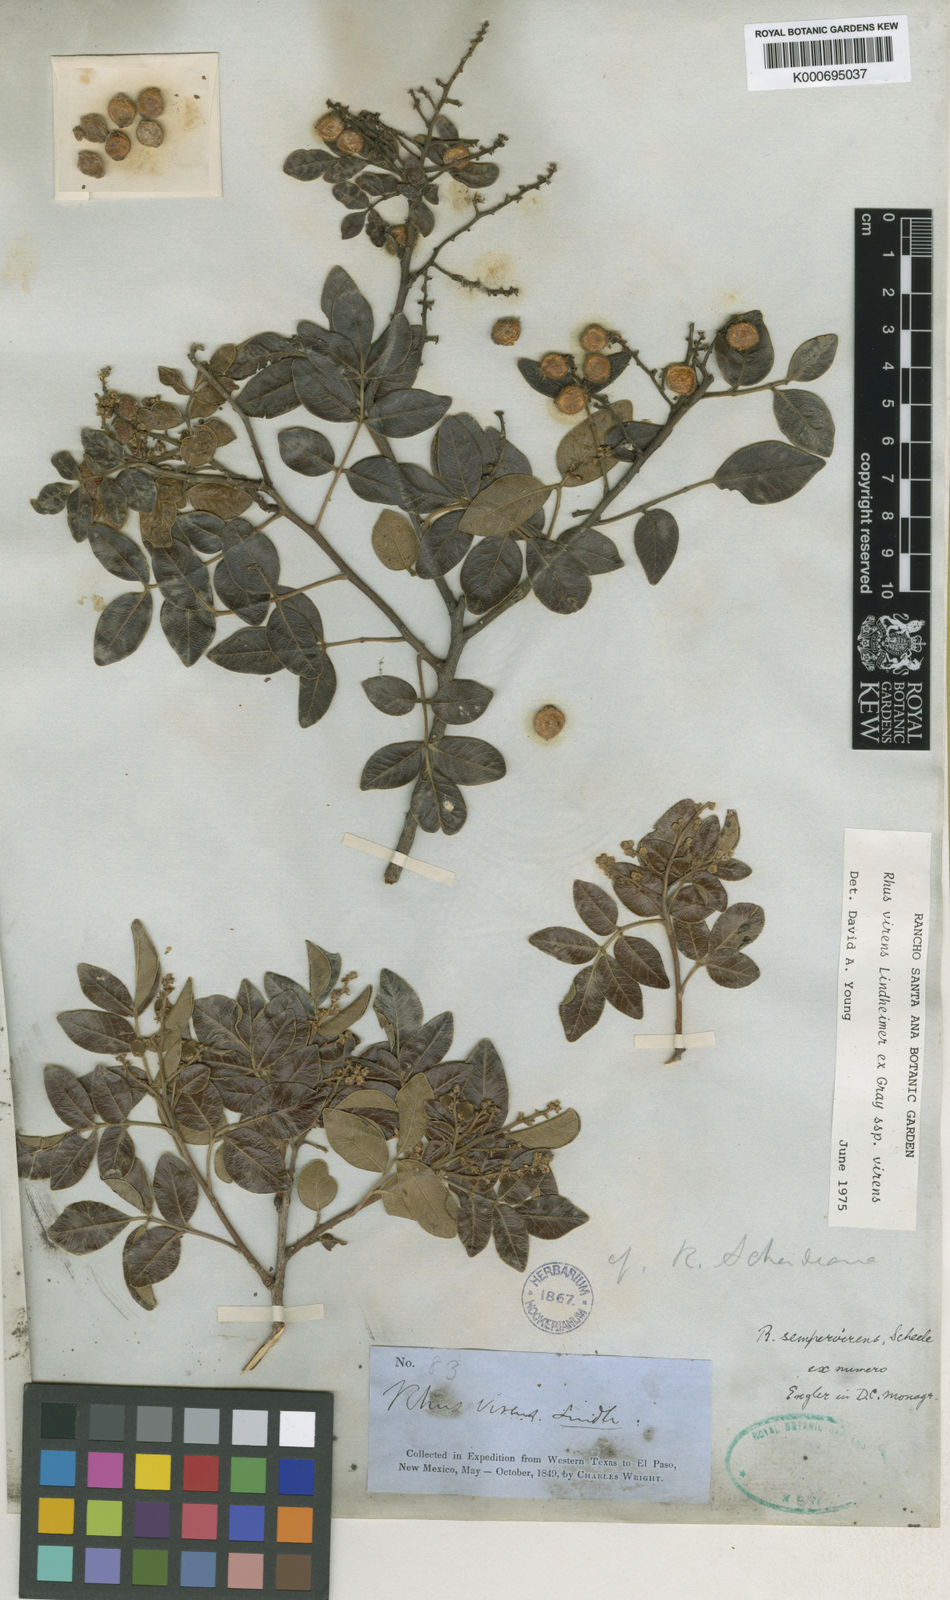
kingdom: Plantae
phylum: Tracheophyta
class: Magnoliopsida
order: Sapindales
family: Anacardiaceae
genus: Rhus
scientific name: Rhus
